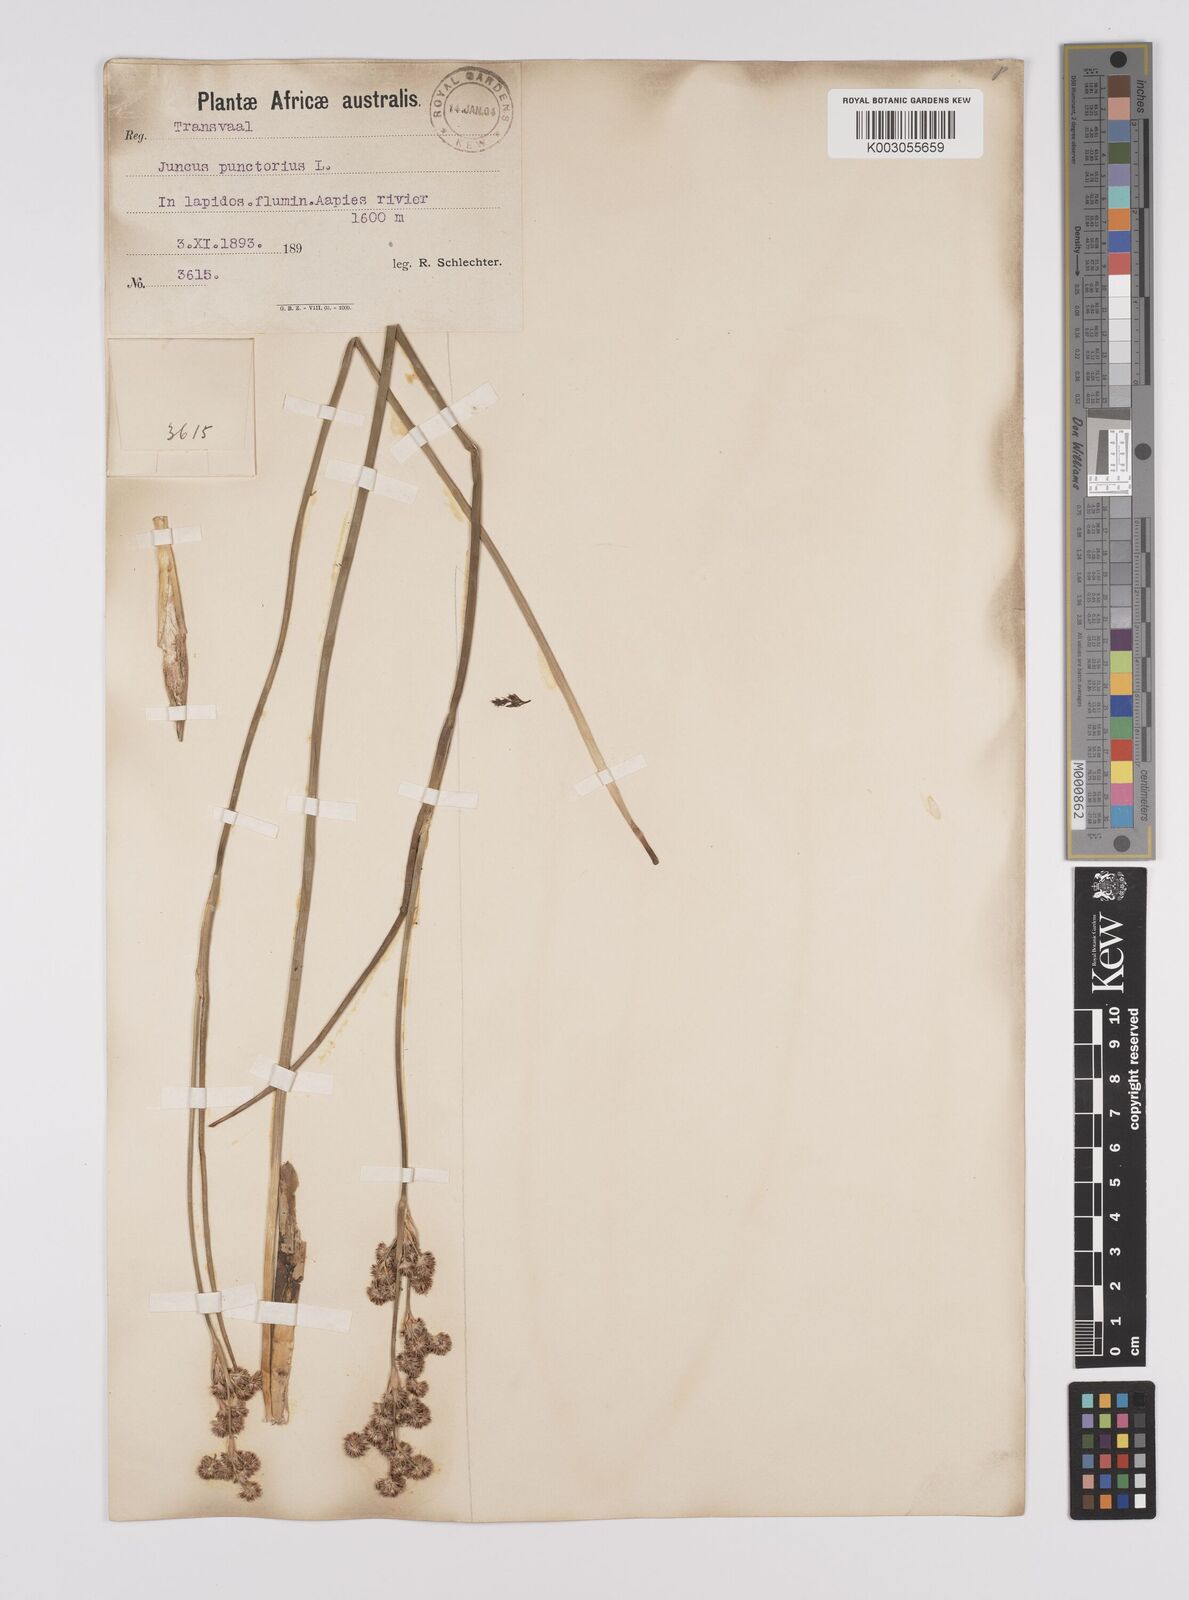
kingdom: Plantae
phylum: Tracheophyta
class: Liliopsida
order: Poales
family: Juncaceae
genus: Juncus
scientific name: Juncus punctorius
